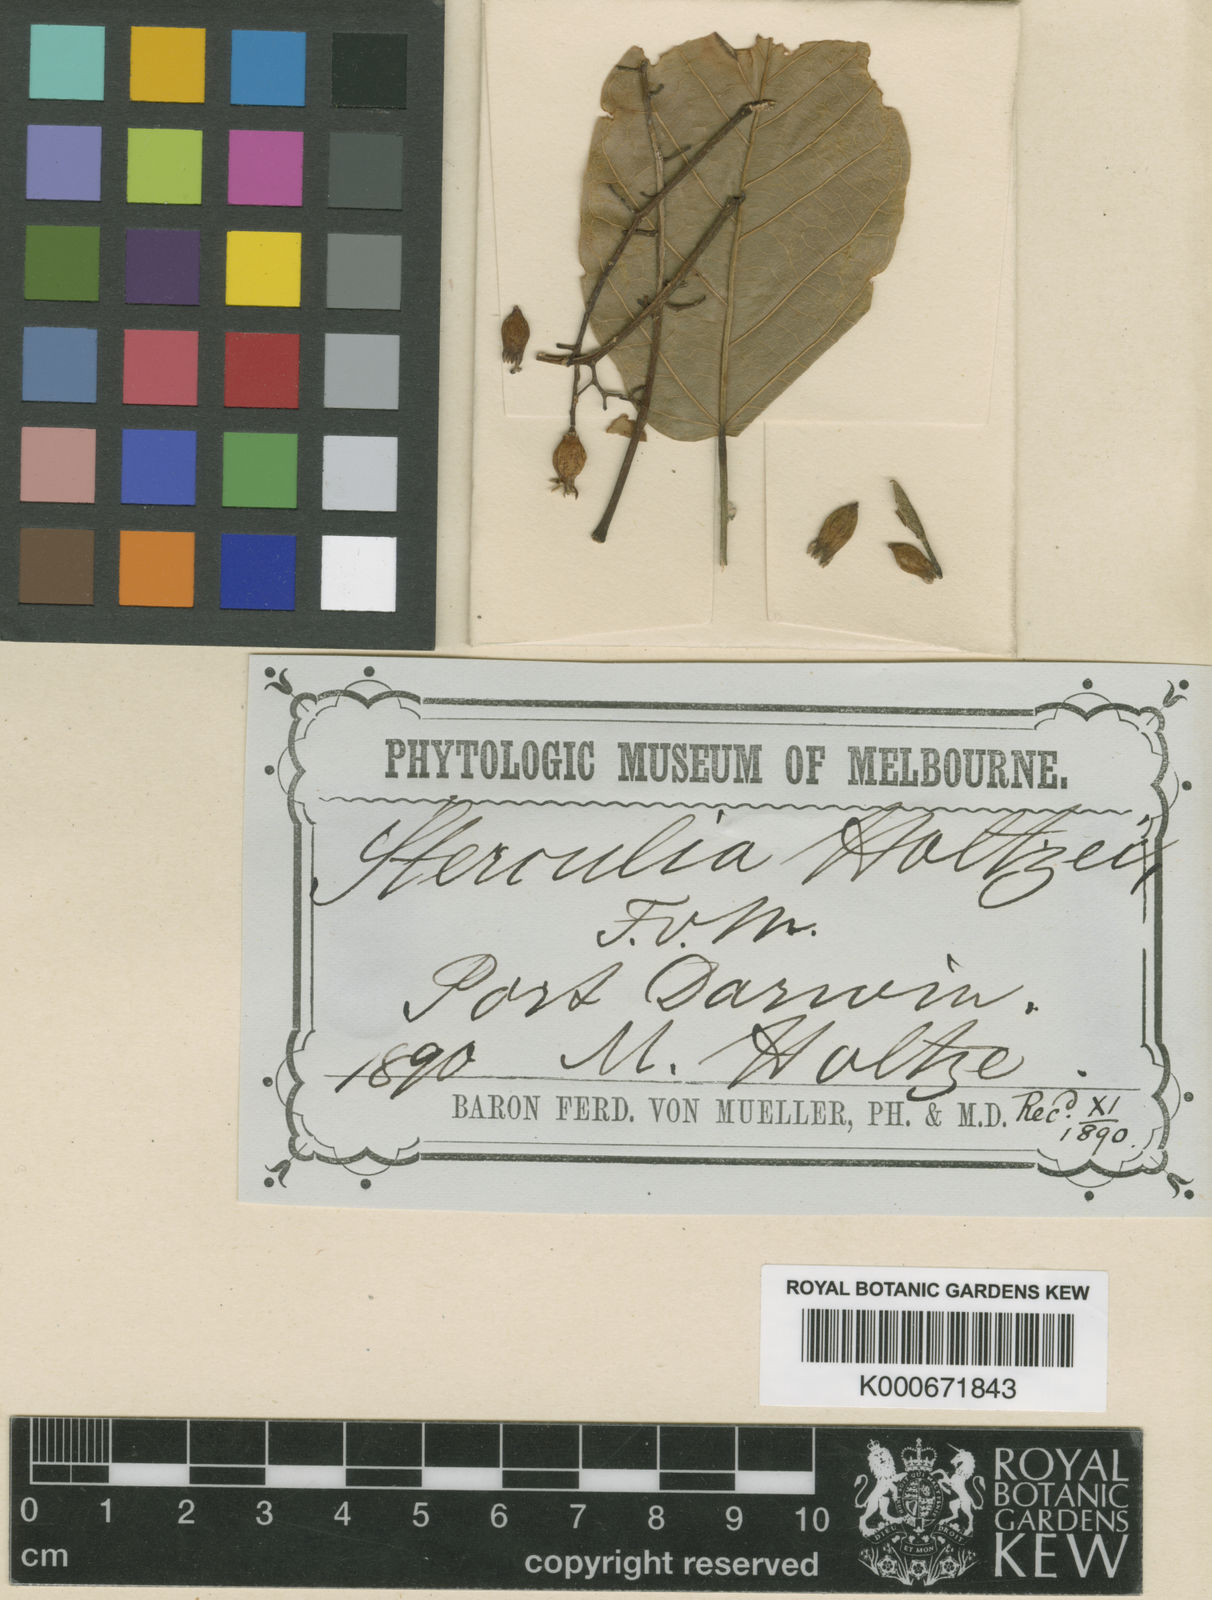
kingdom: Plantae
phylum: Tracheophyta
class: Magnoliopsida
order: Malvales
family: Malvaceae
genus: Sterculia
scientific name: Sterculia
